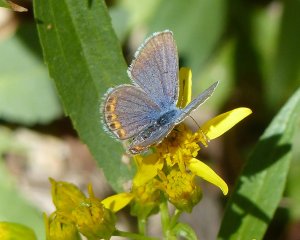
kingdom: Animalia
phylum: Arthropoda
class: Insecta
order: Lepidoptera
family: Lycaenidae
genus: Plebejus
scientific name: Plebejus acmon
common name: Acmon Blue
